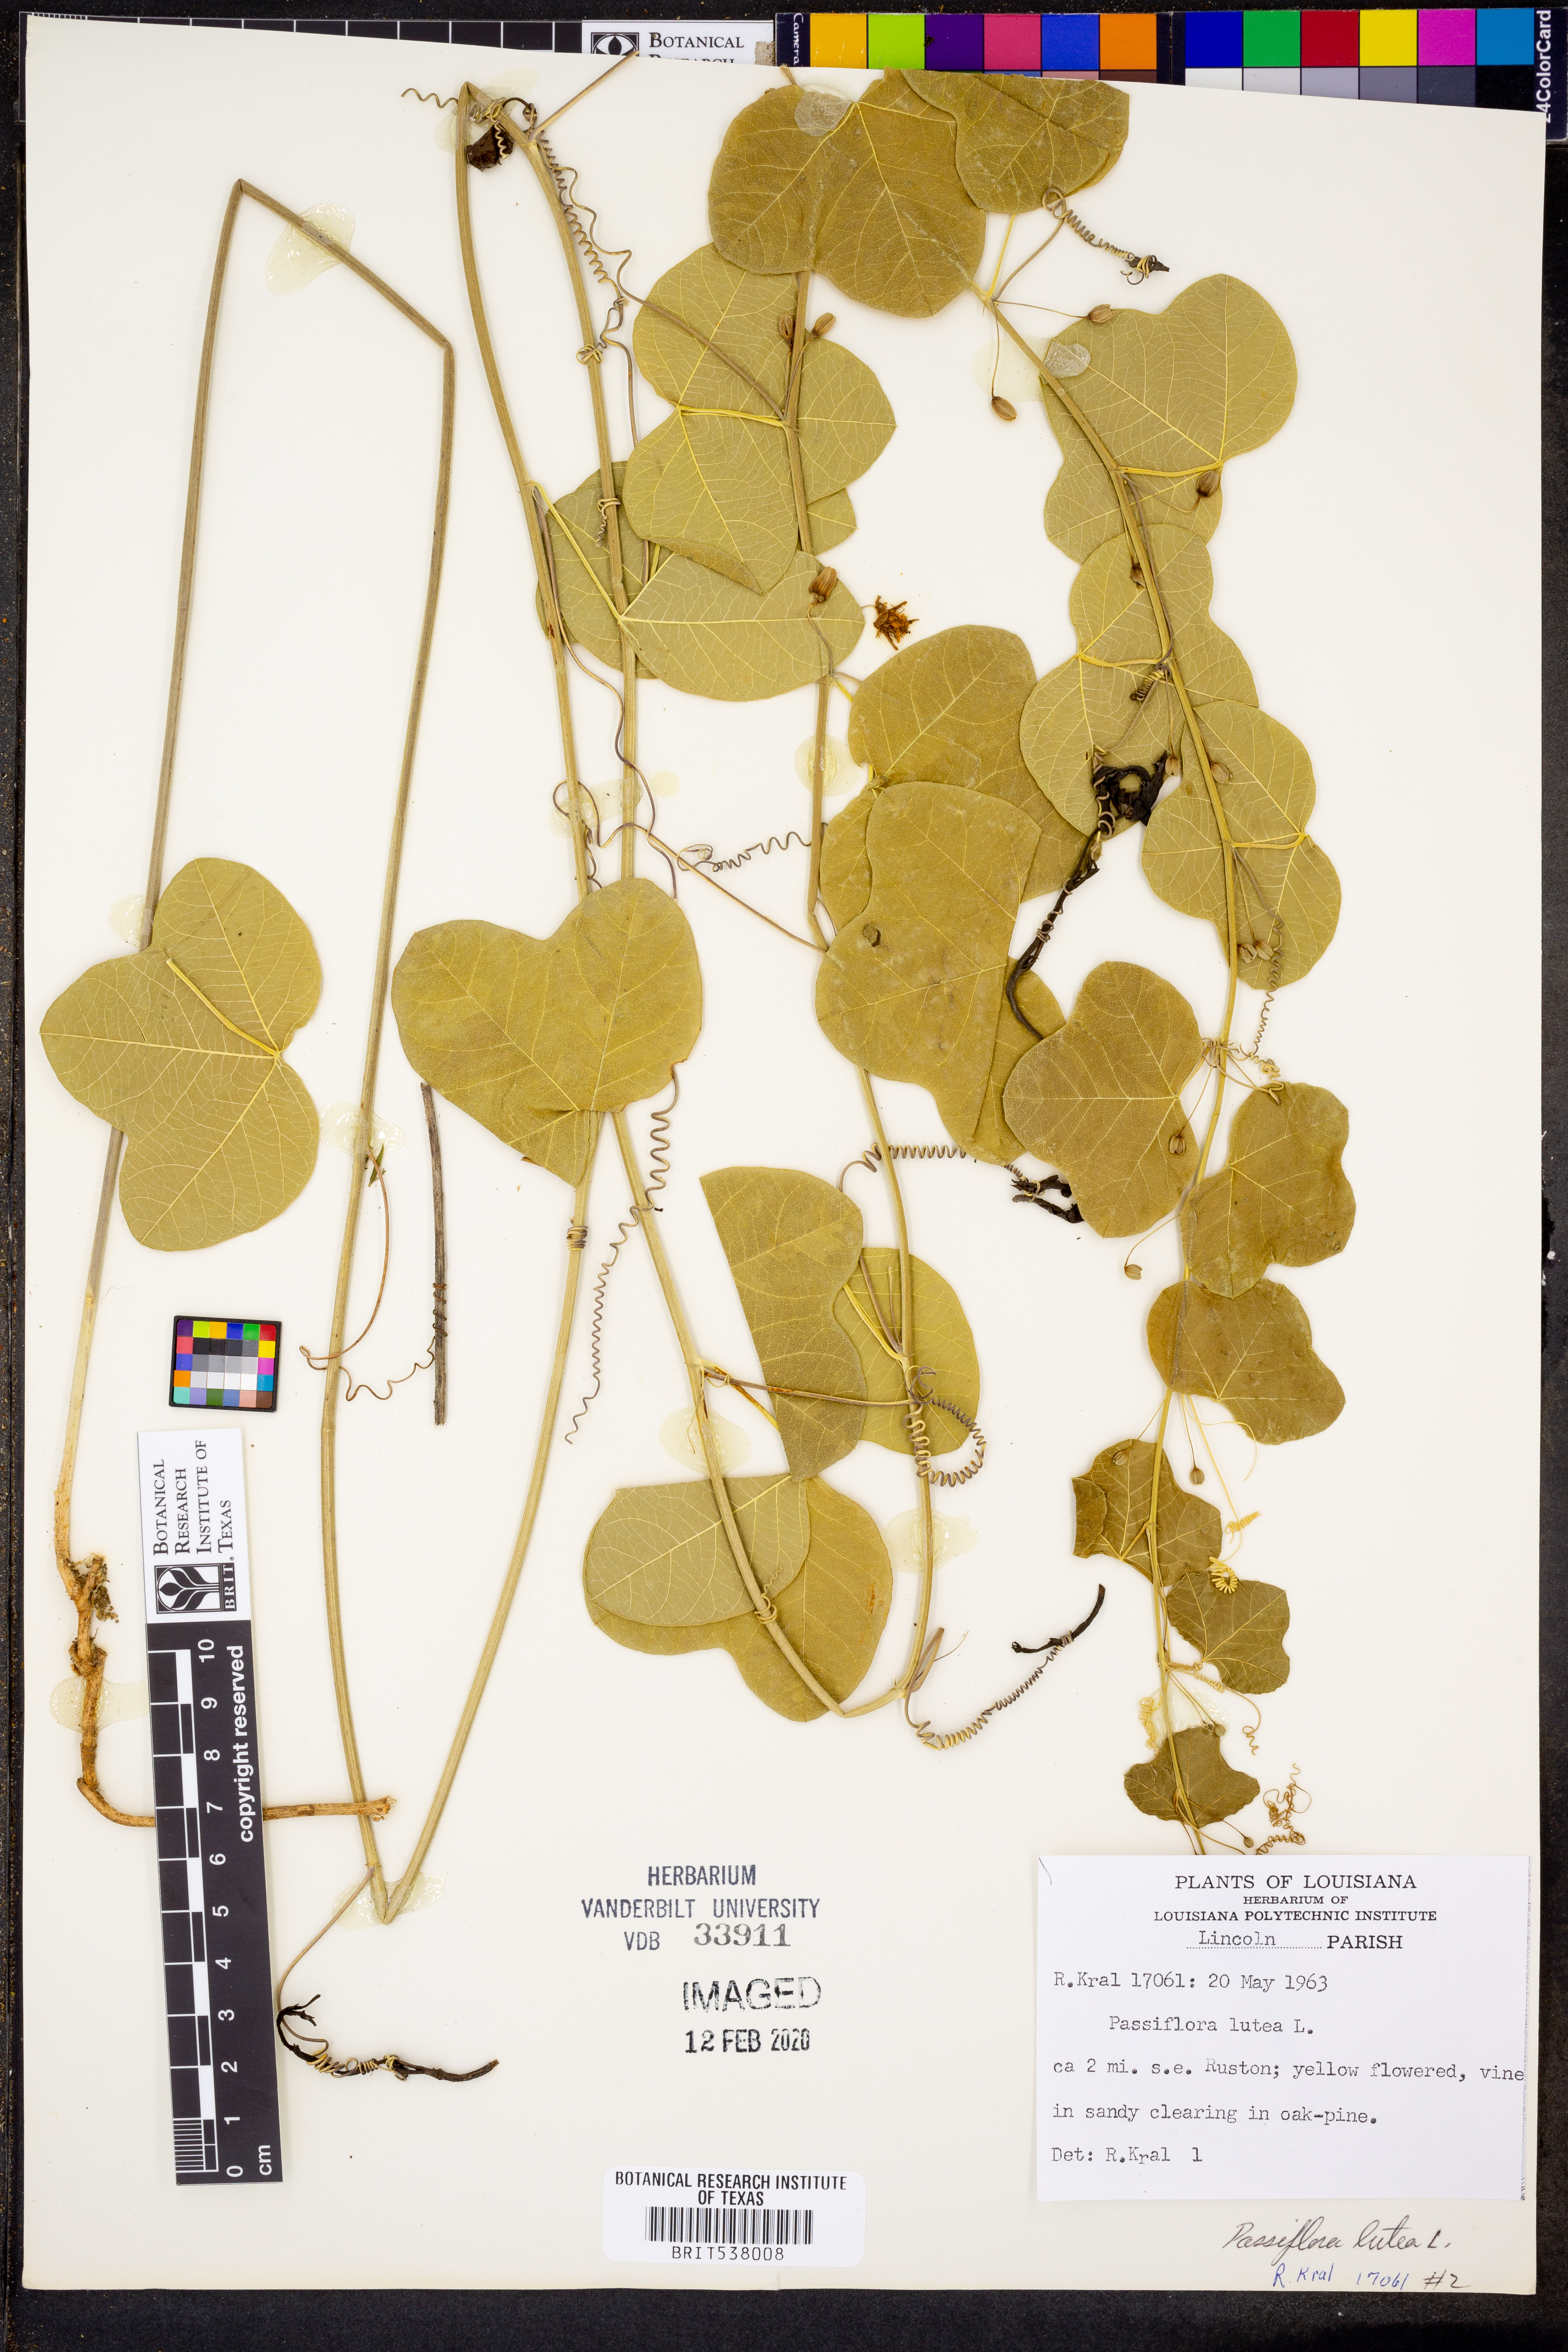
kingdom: Plantae
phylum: Tracheophyta
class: Magnoliopsida
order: Malpighiales
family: Passifloraceae
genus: Passiflora
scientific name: Passiflora lutea
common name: Yellow passionflower
